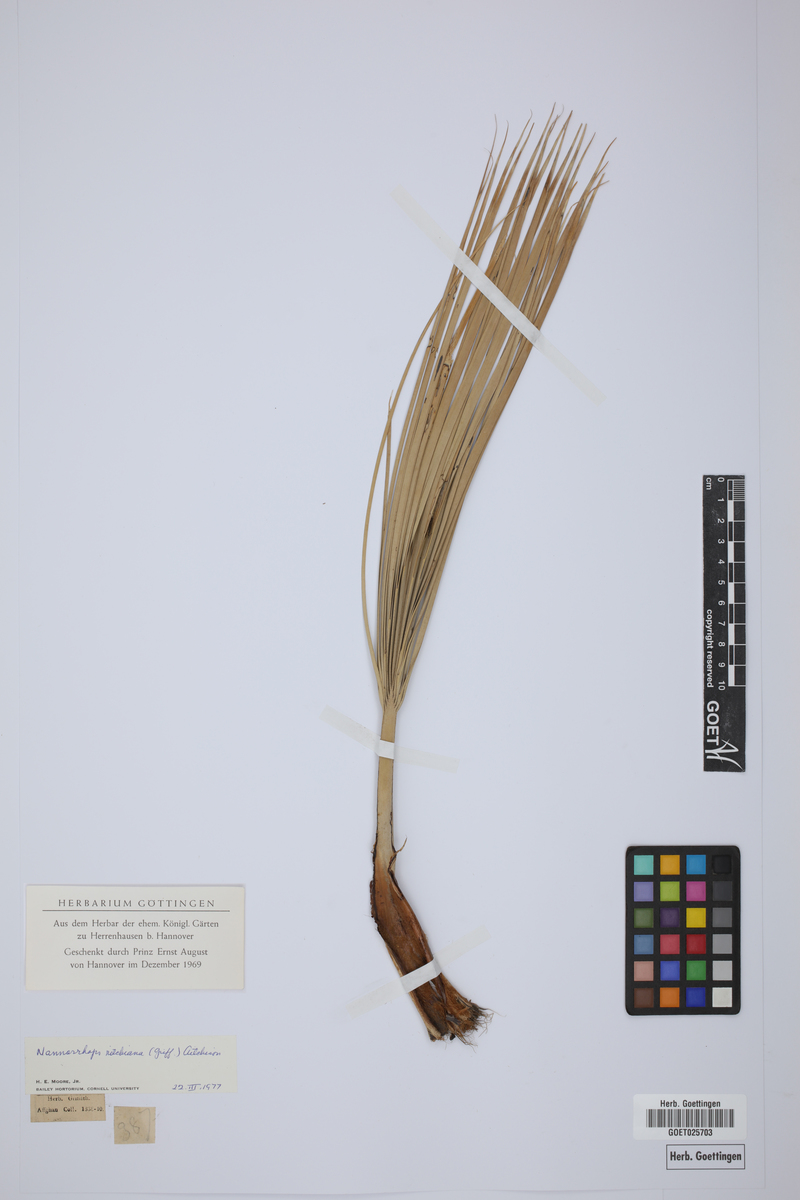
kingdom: Plantae
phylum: Tracheophyta
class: Liliopsida
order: Arecales
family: Arecaceae
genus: Nannorrhops
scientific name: Nannorrhops ritchieana
